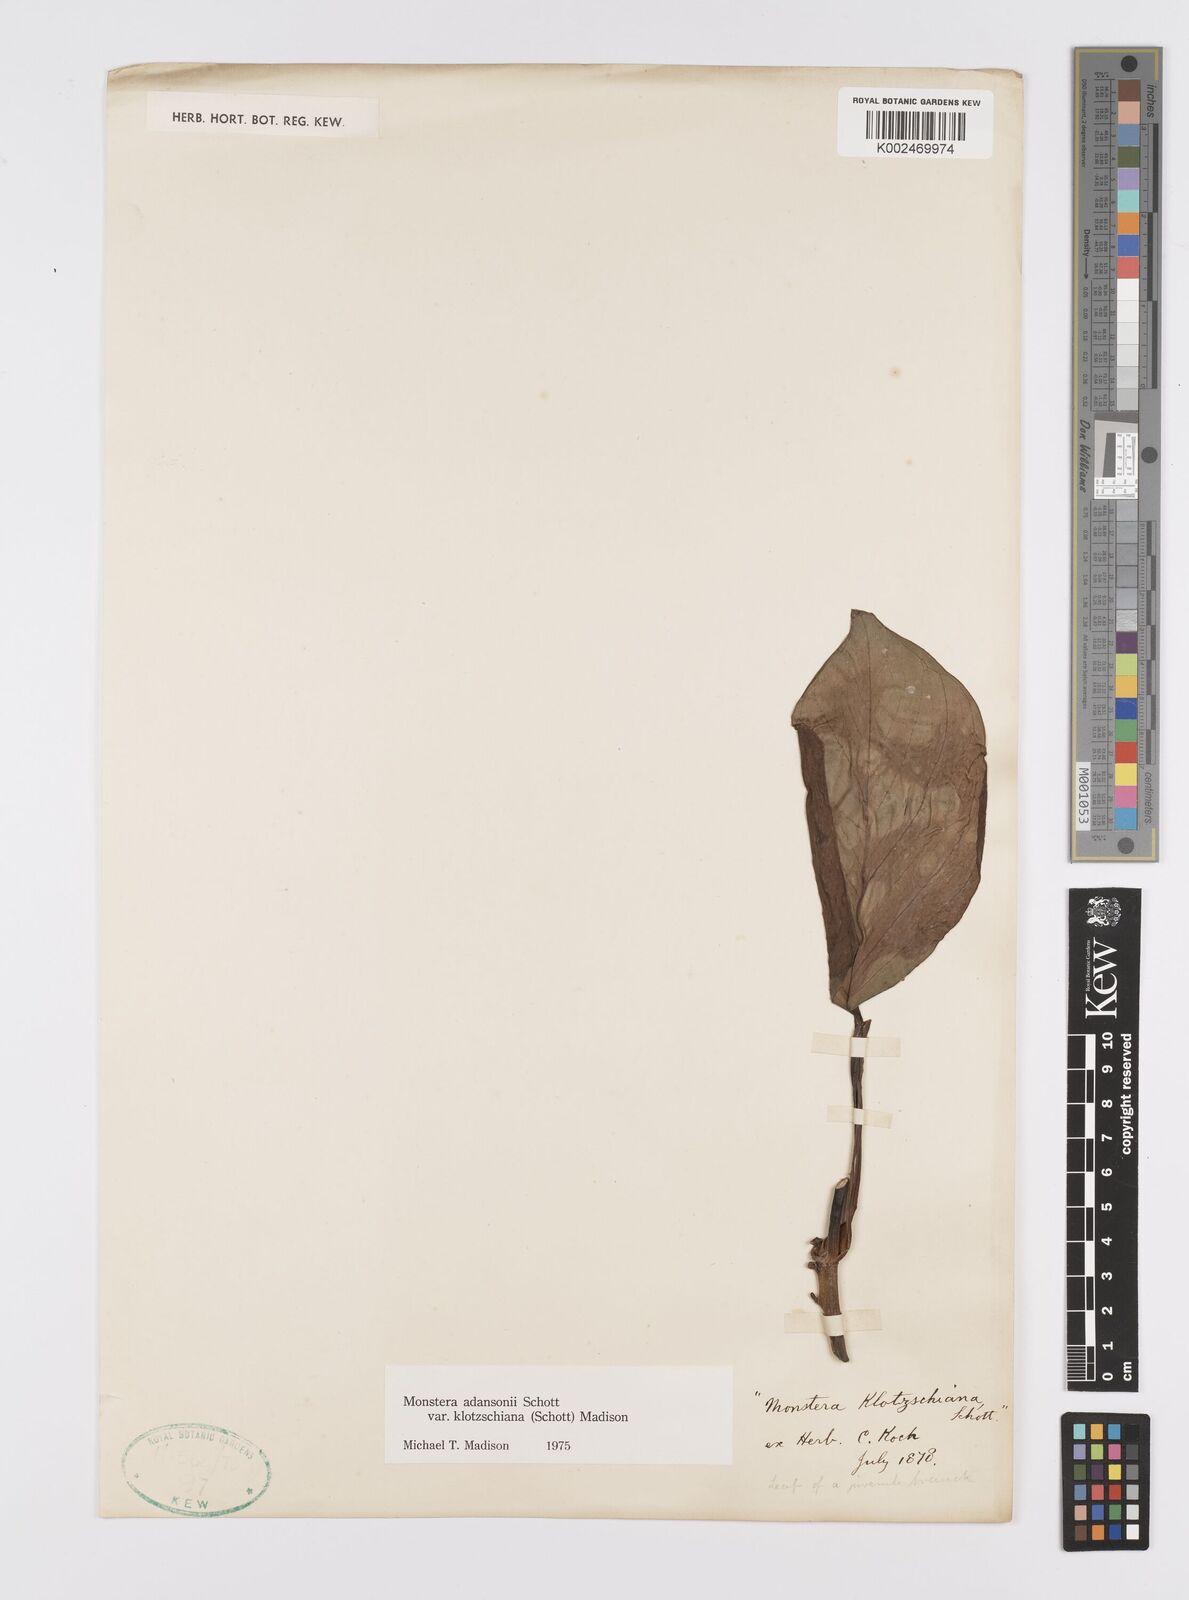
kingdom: Plantae
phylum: Tracheophyta
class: Liliopsida
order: Alismatales
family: Araceae
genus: Monstera
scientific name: Monstera adansonii
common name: Tarovine
